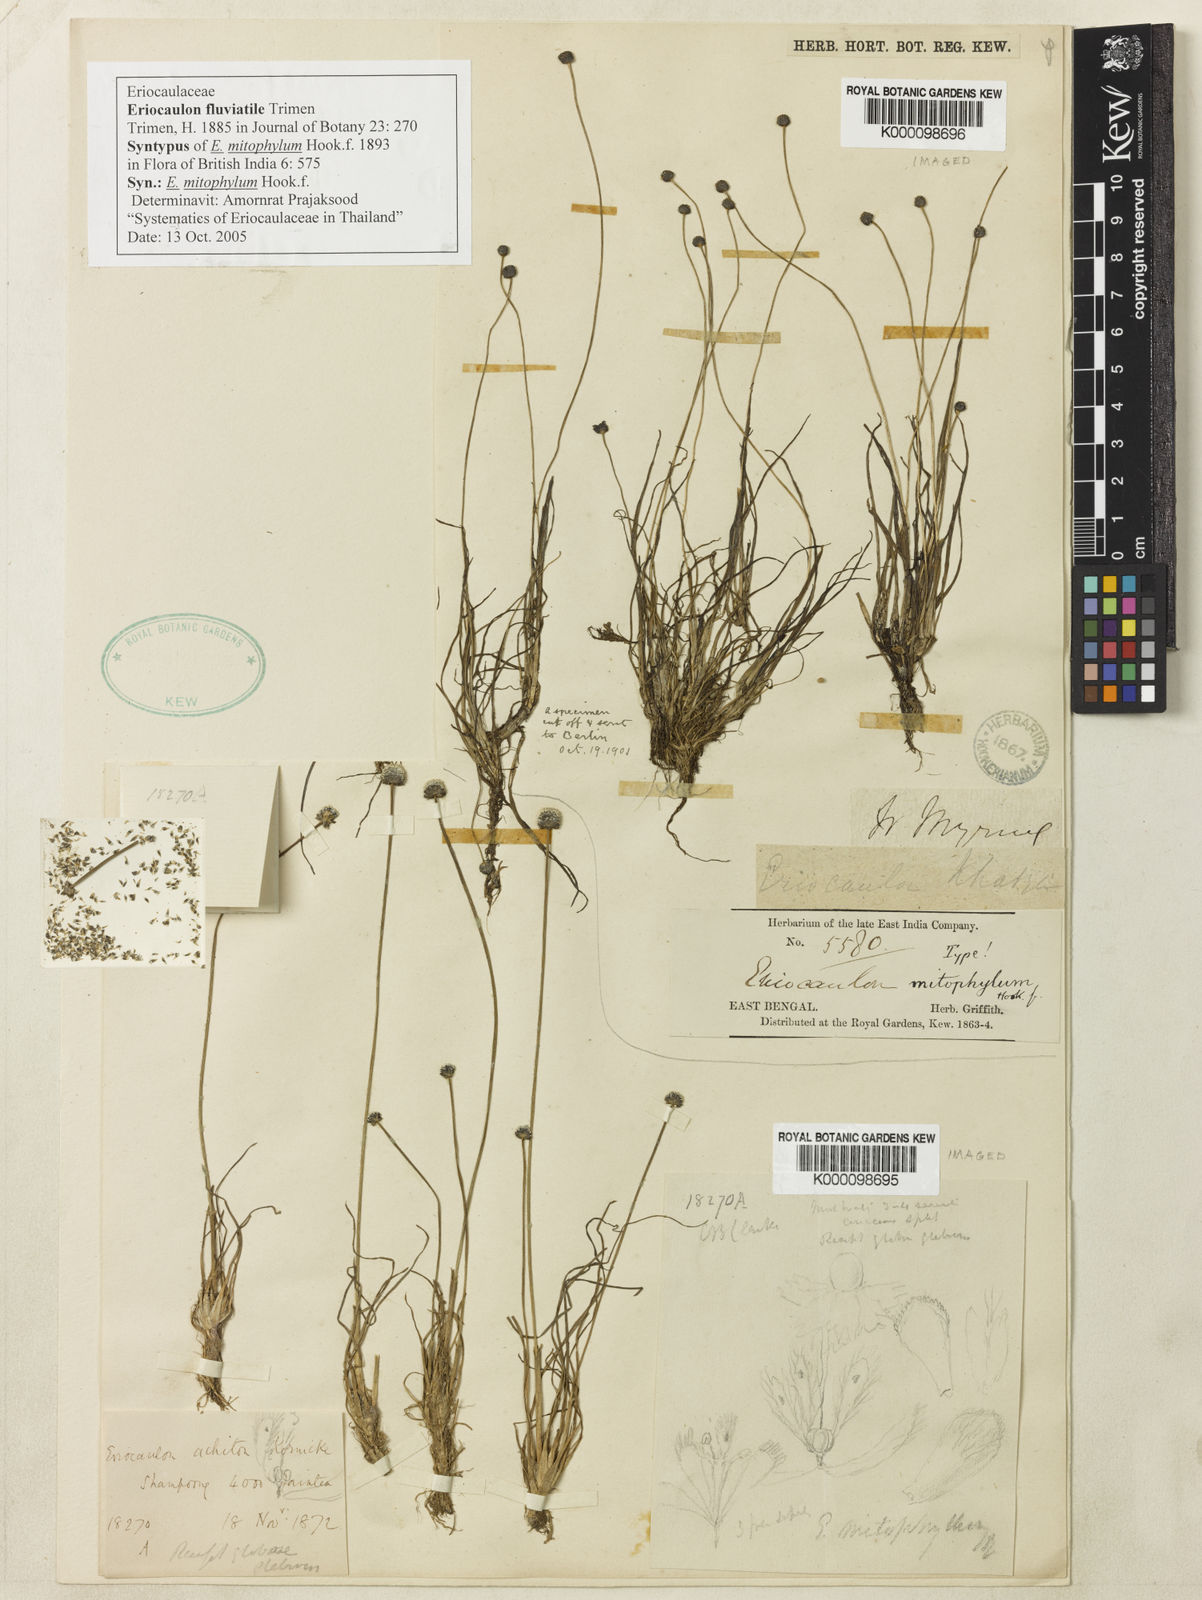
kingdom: Plantae
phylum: Tracheophyta
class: Liliopsida
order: Poales
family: Eriocaulaceae
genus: Eriocaulon
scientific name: Eriocaulon fluviatile
